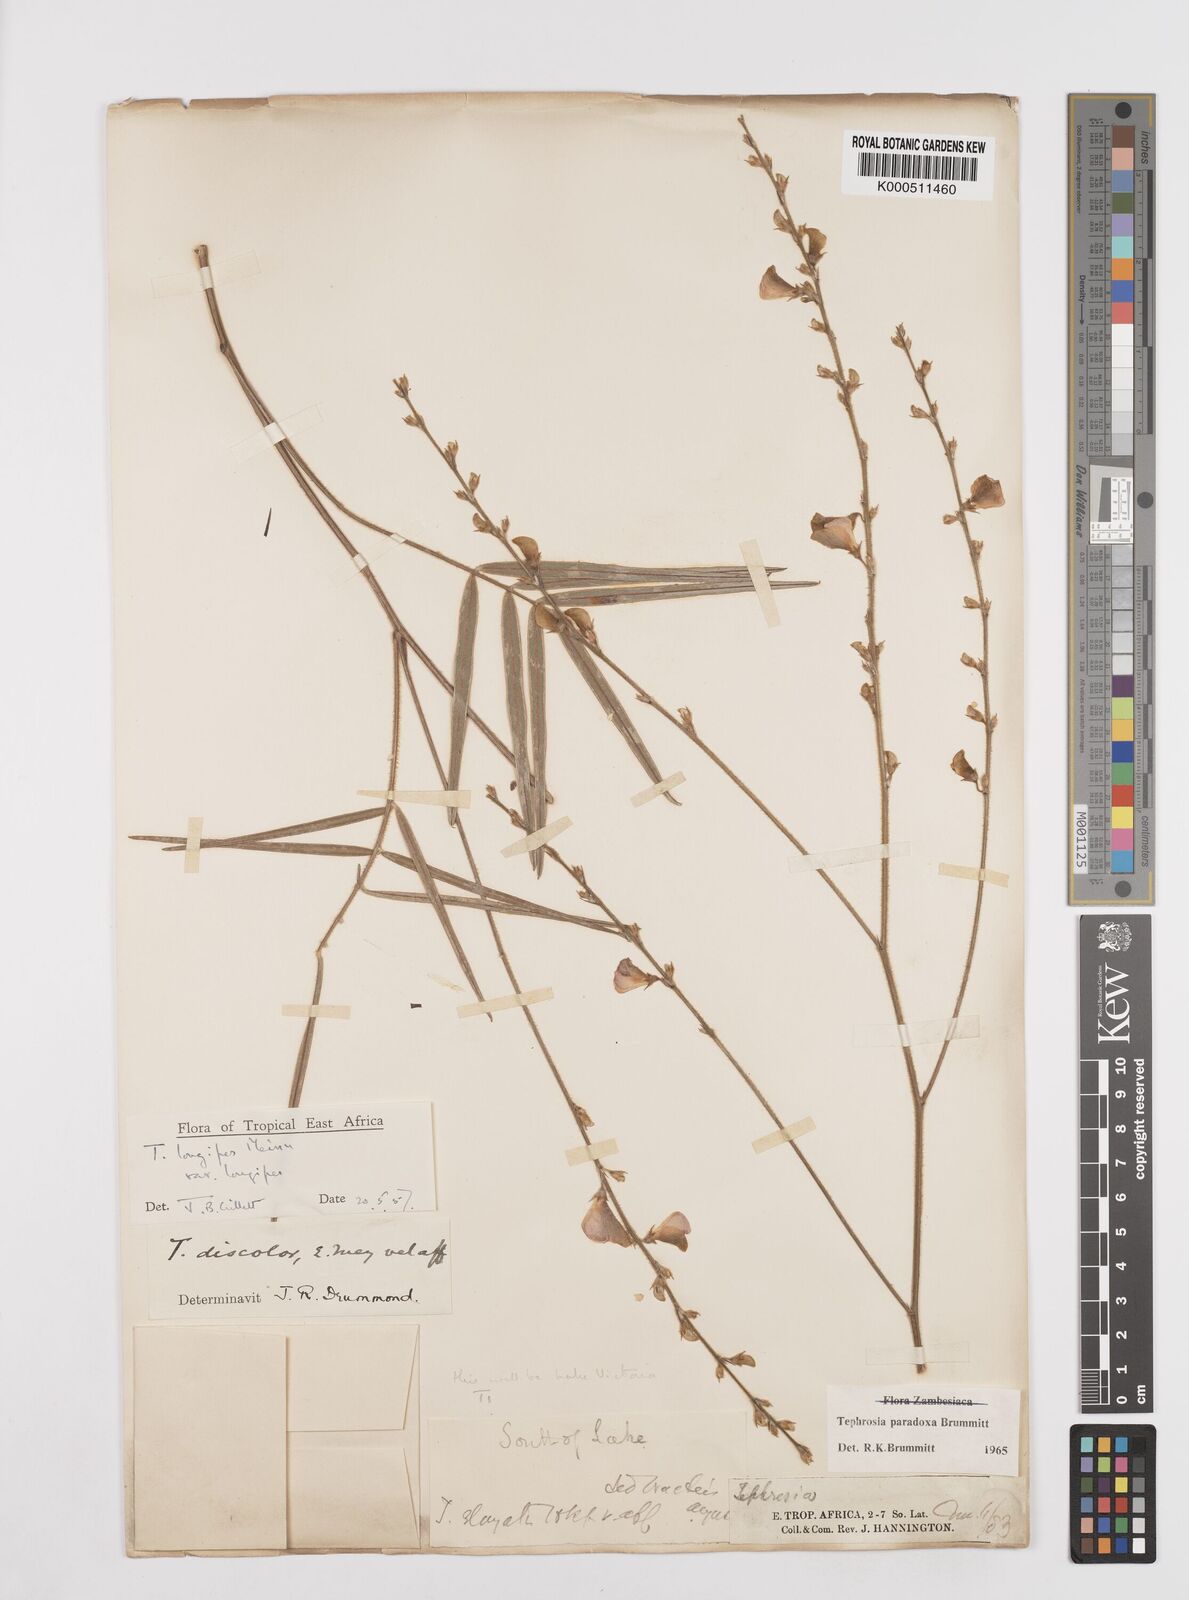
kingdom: Plantae
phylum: Tracheophyta
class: Magnoliopsida
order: Fabales
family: Fabaceae
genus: Tephrosia
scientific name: Tephrosia paradoxa
